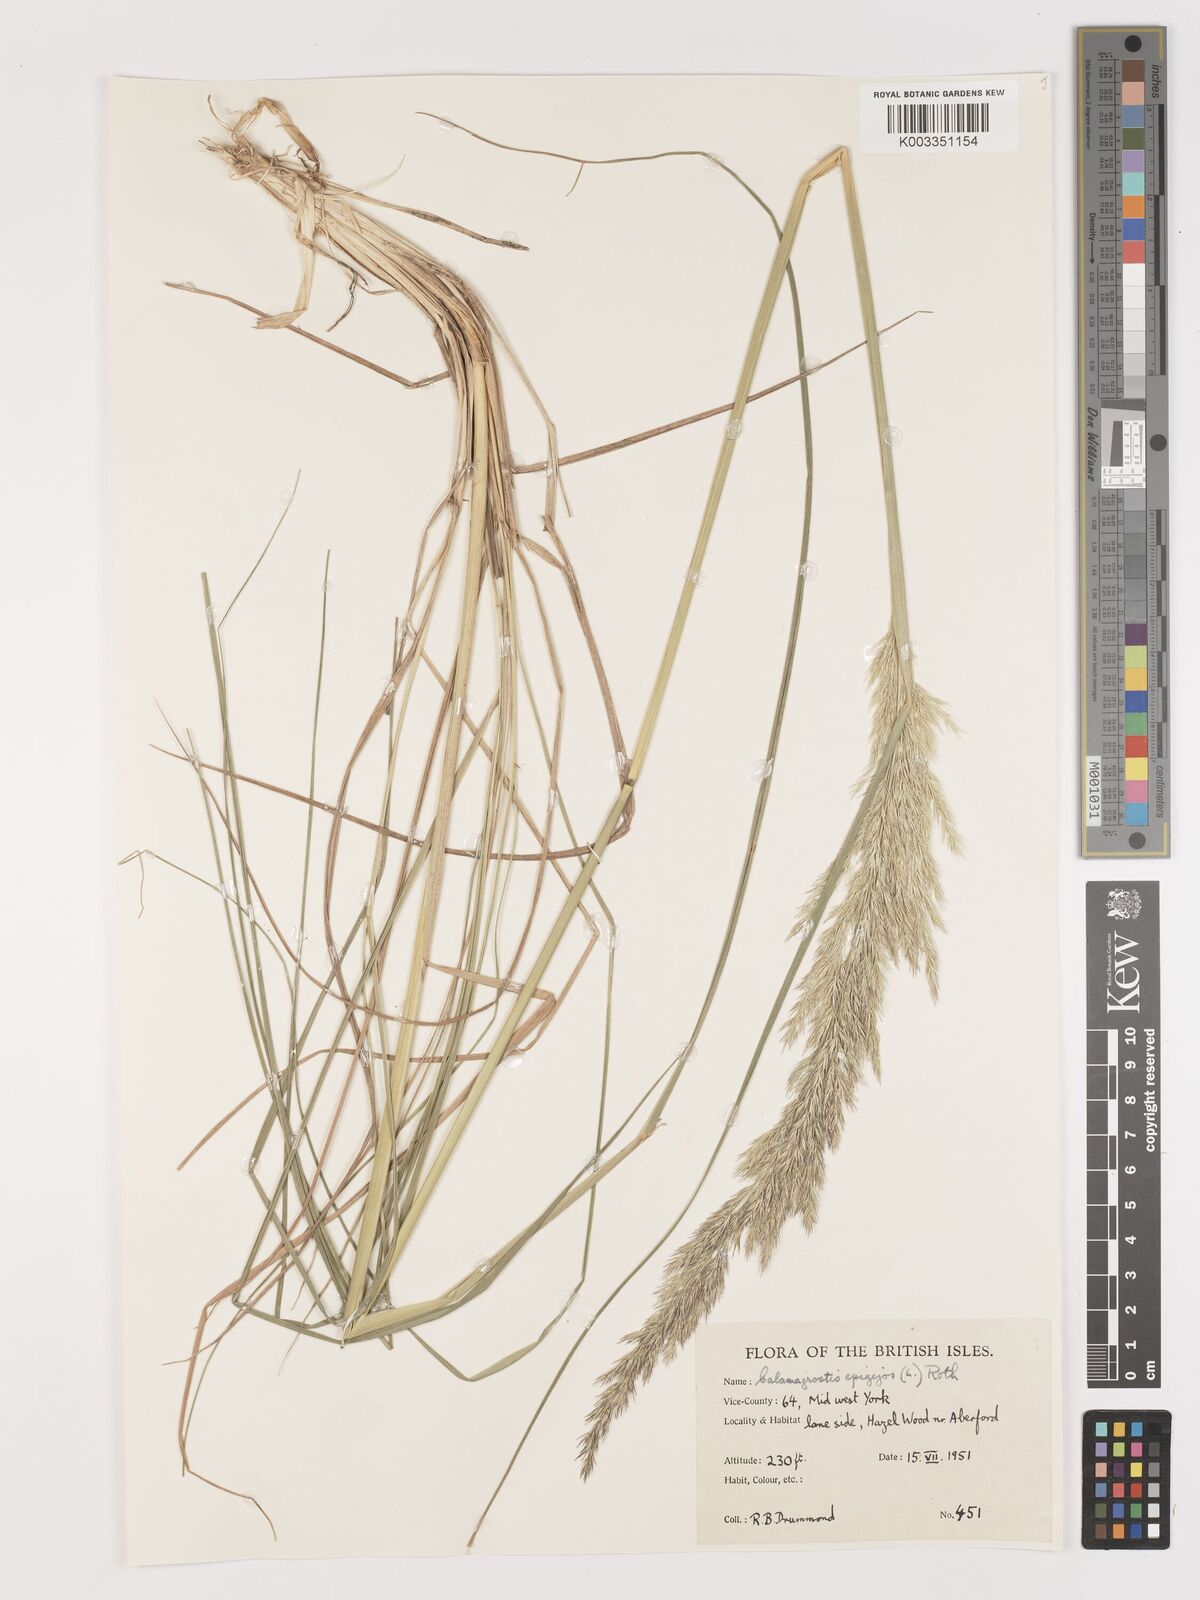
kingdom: Plantae
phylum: Tracheophyta
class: Liliopsida
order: Poales
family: Poaceae
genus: Calamagrostis
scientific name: Calamagrostis
